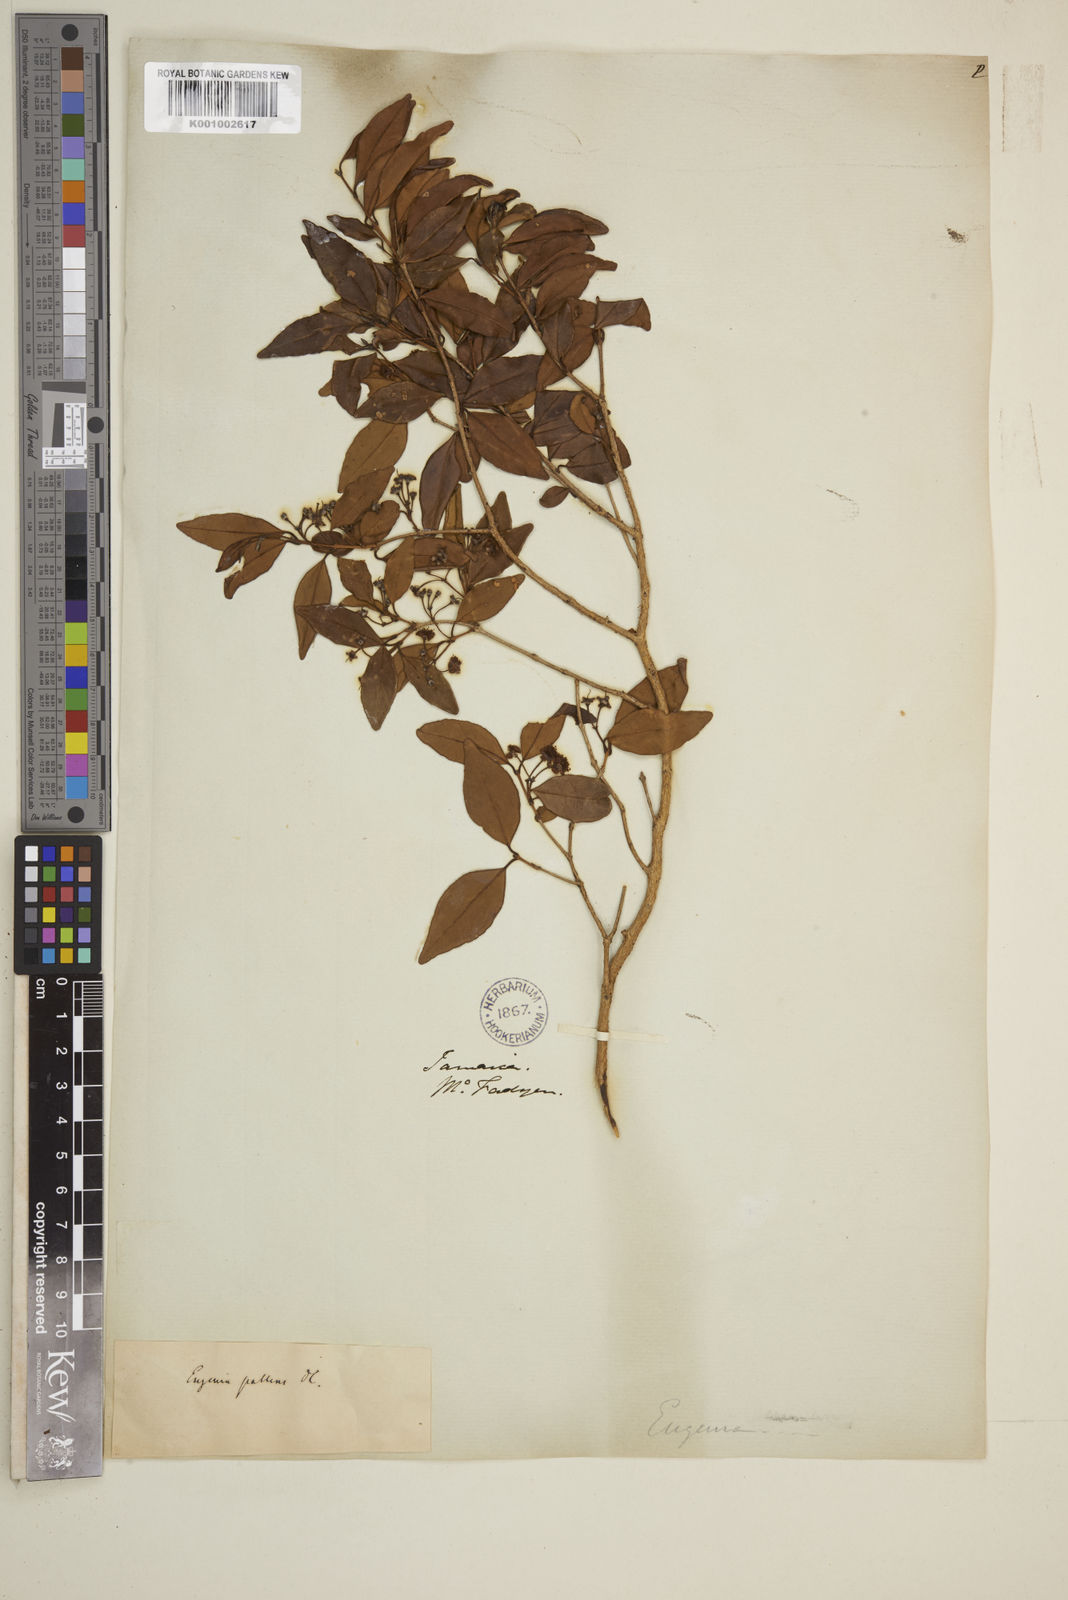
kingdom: Plantae
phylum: Tracheophyta
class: Magnoliopsida
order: Myrtales
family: Myrtaceae
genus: Myrcia
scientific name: Myrcia neopallens
